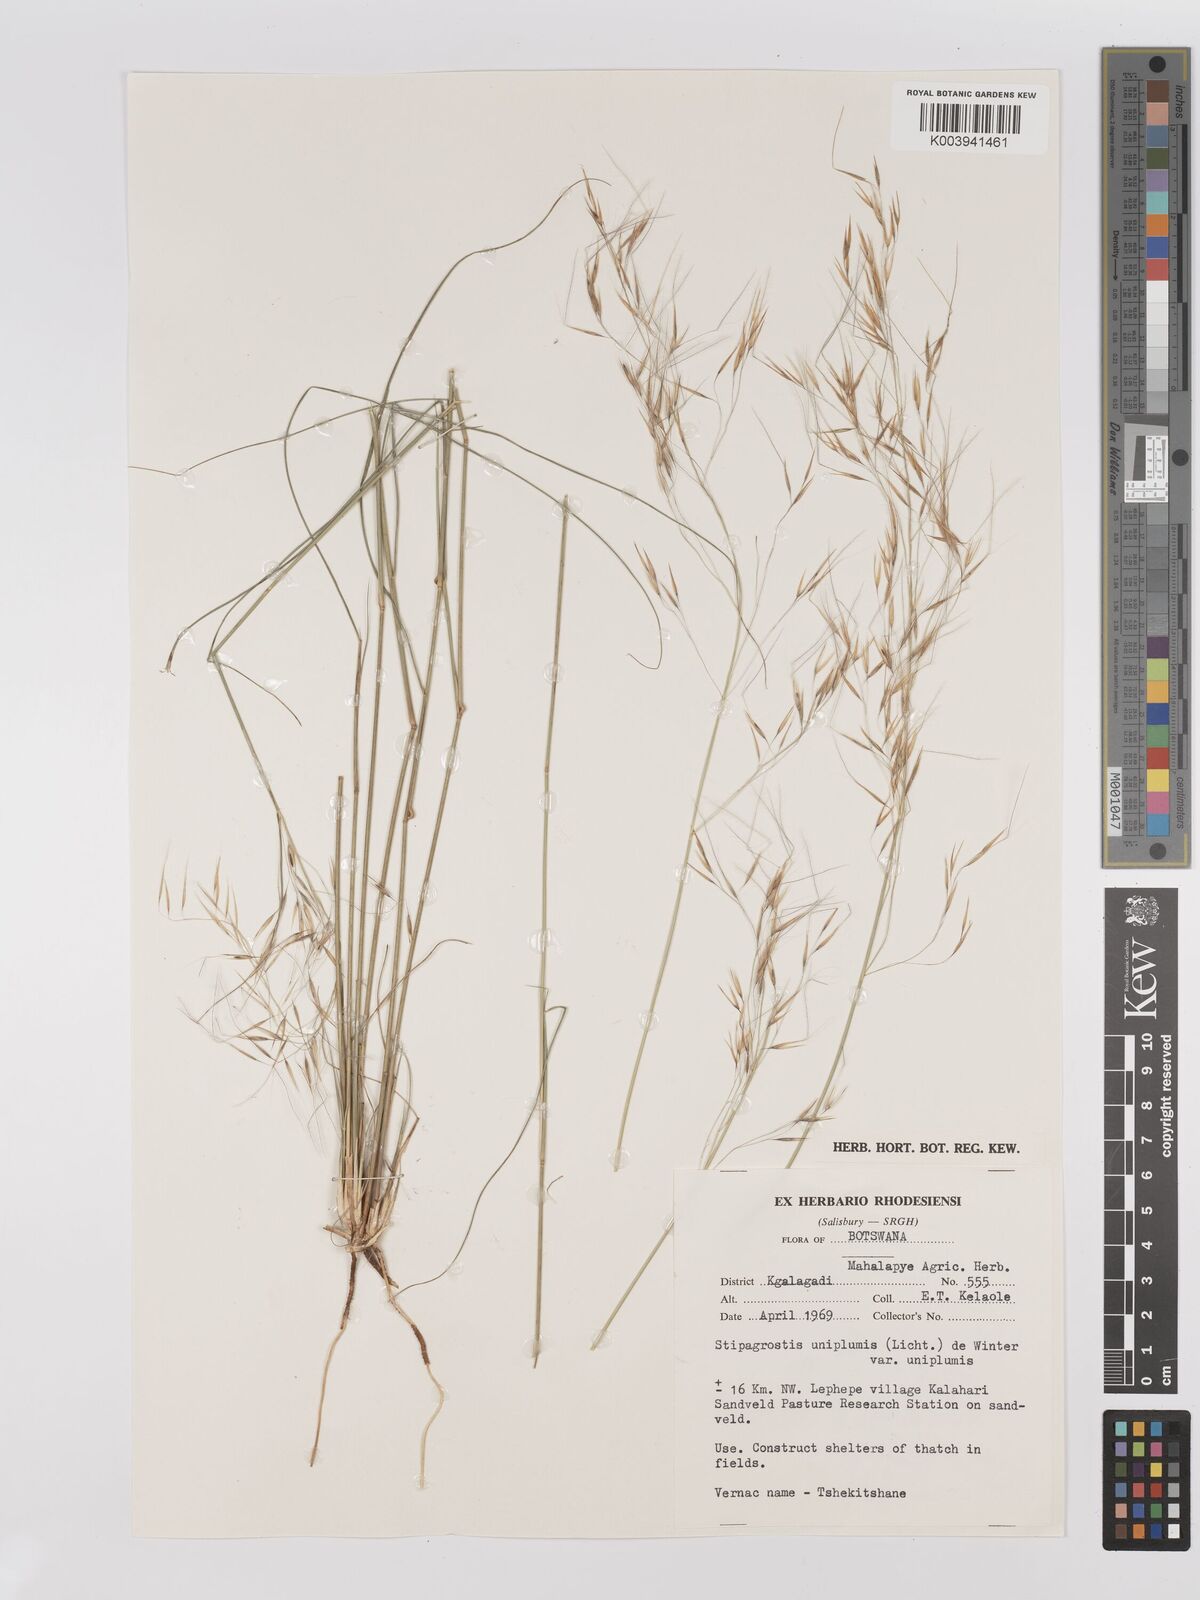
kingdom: Plantae
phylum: Tracheophyta
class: Liliopsida
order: Poales
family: Poaceae
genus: Stipagrostis
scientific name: Stipagrostis uniplumis
